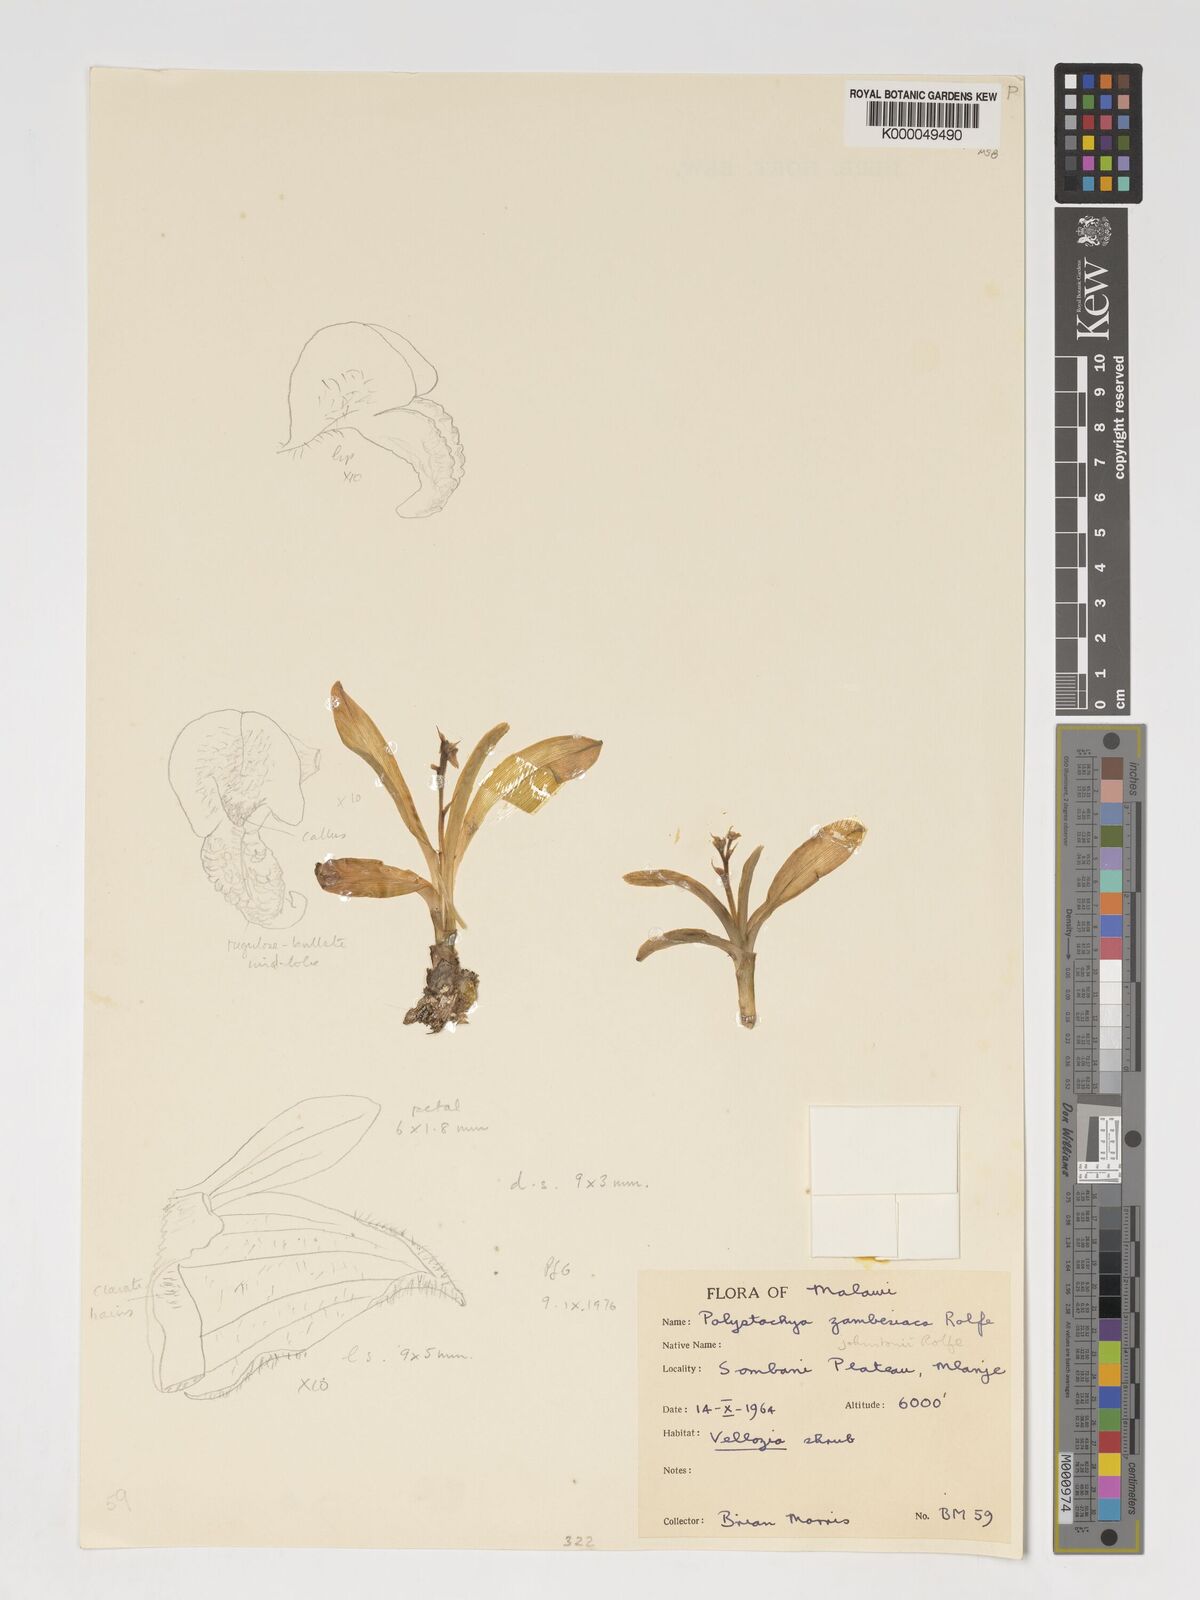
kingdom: Plantae
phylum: Tracheophyta
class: Liliopsida
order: Asparagales
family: Orchidaceae
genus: Polystachya
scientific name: Polystachya johnstonii
